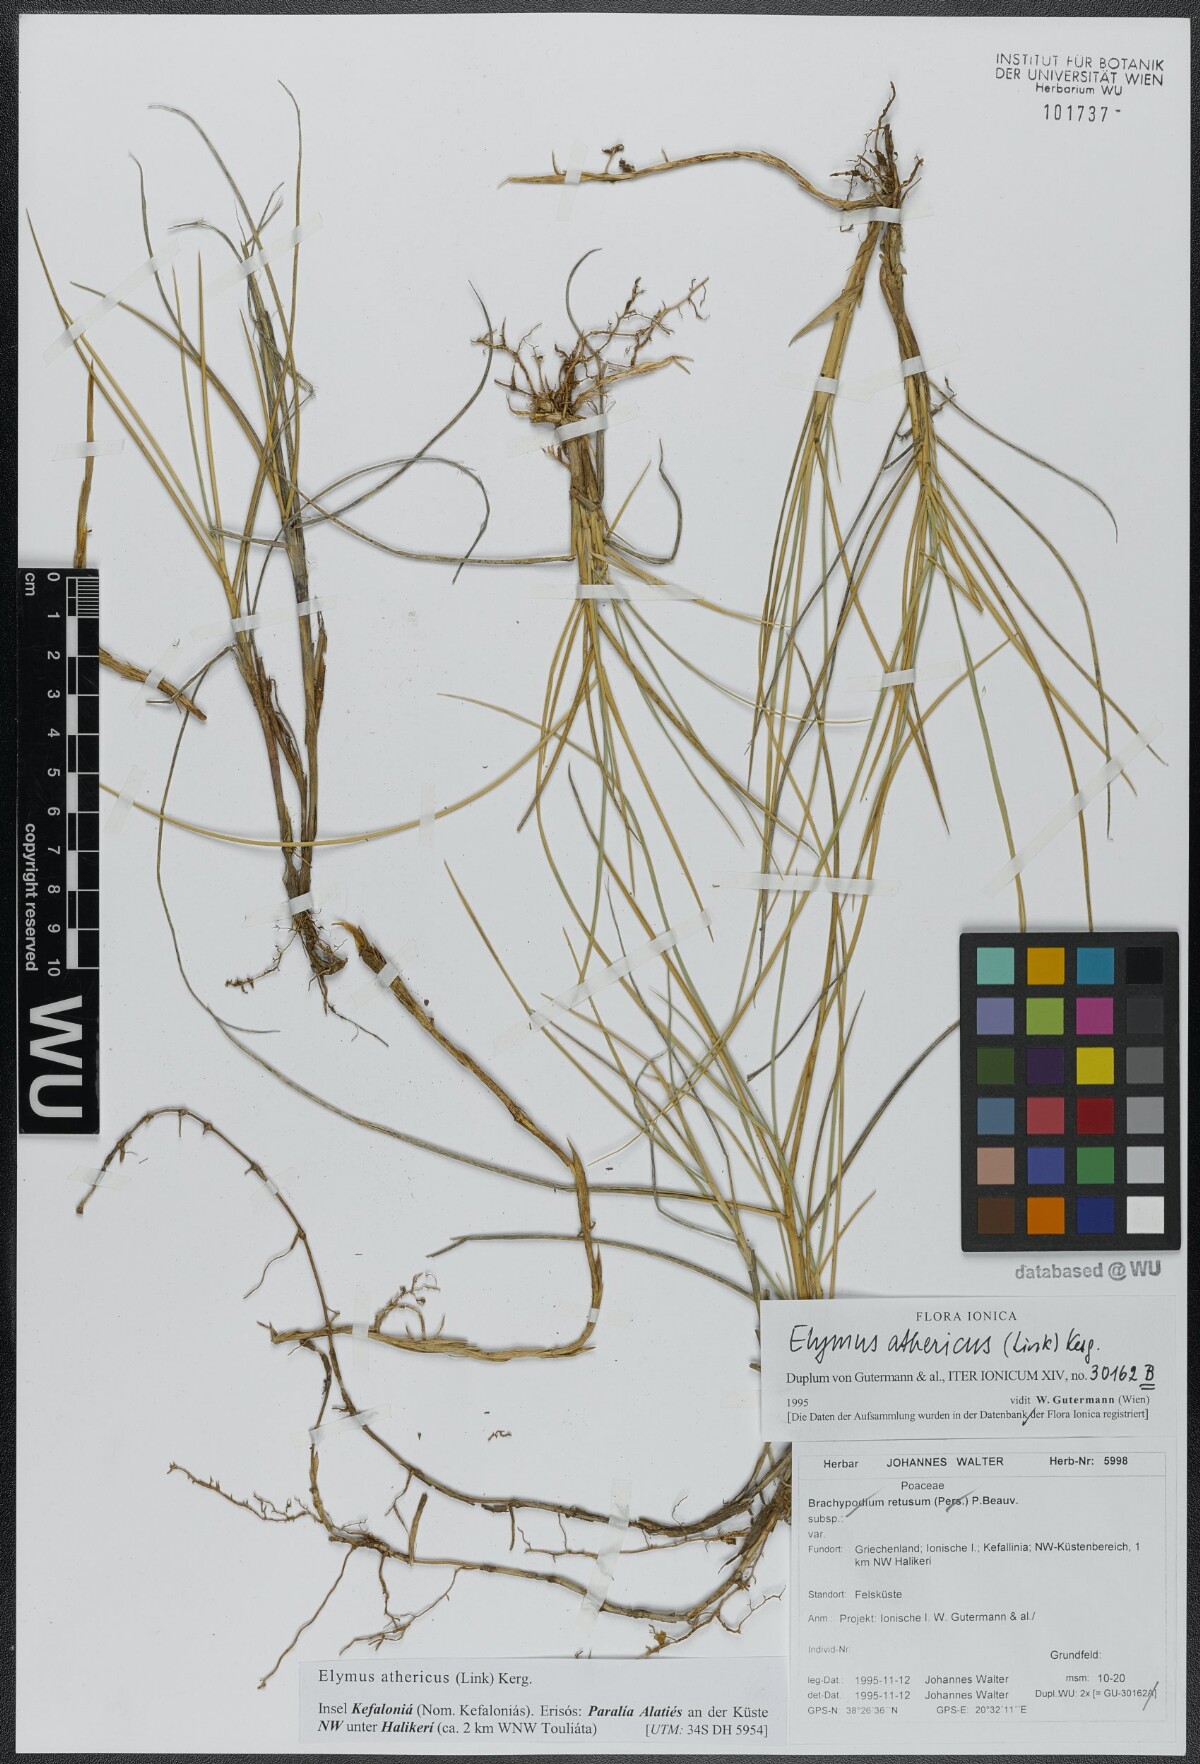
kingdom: Plantae
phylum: Tracheophyta
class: Liliopsida
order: Poales
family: Poaceae
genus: Elymus
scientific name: Elymus athericus
